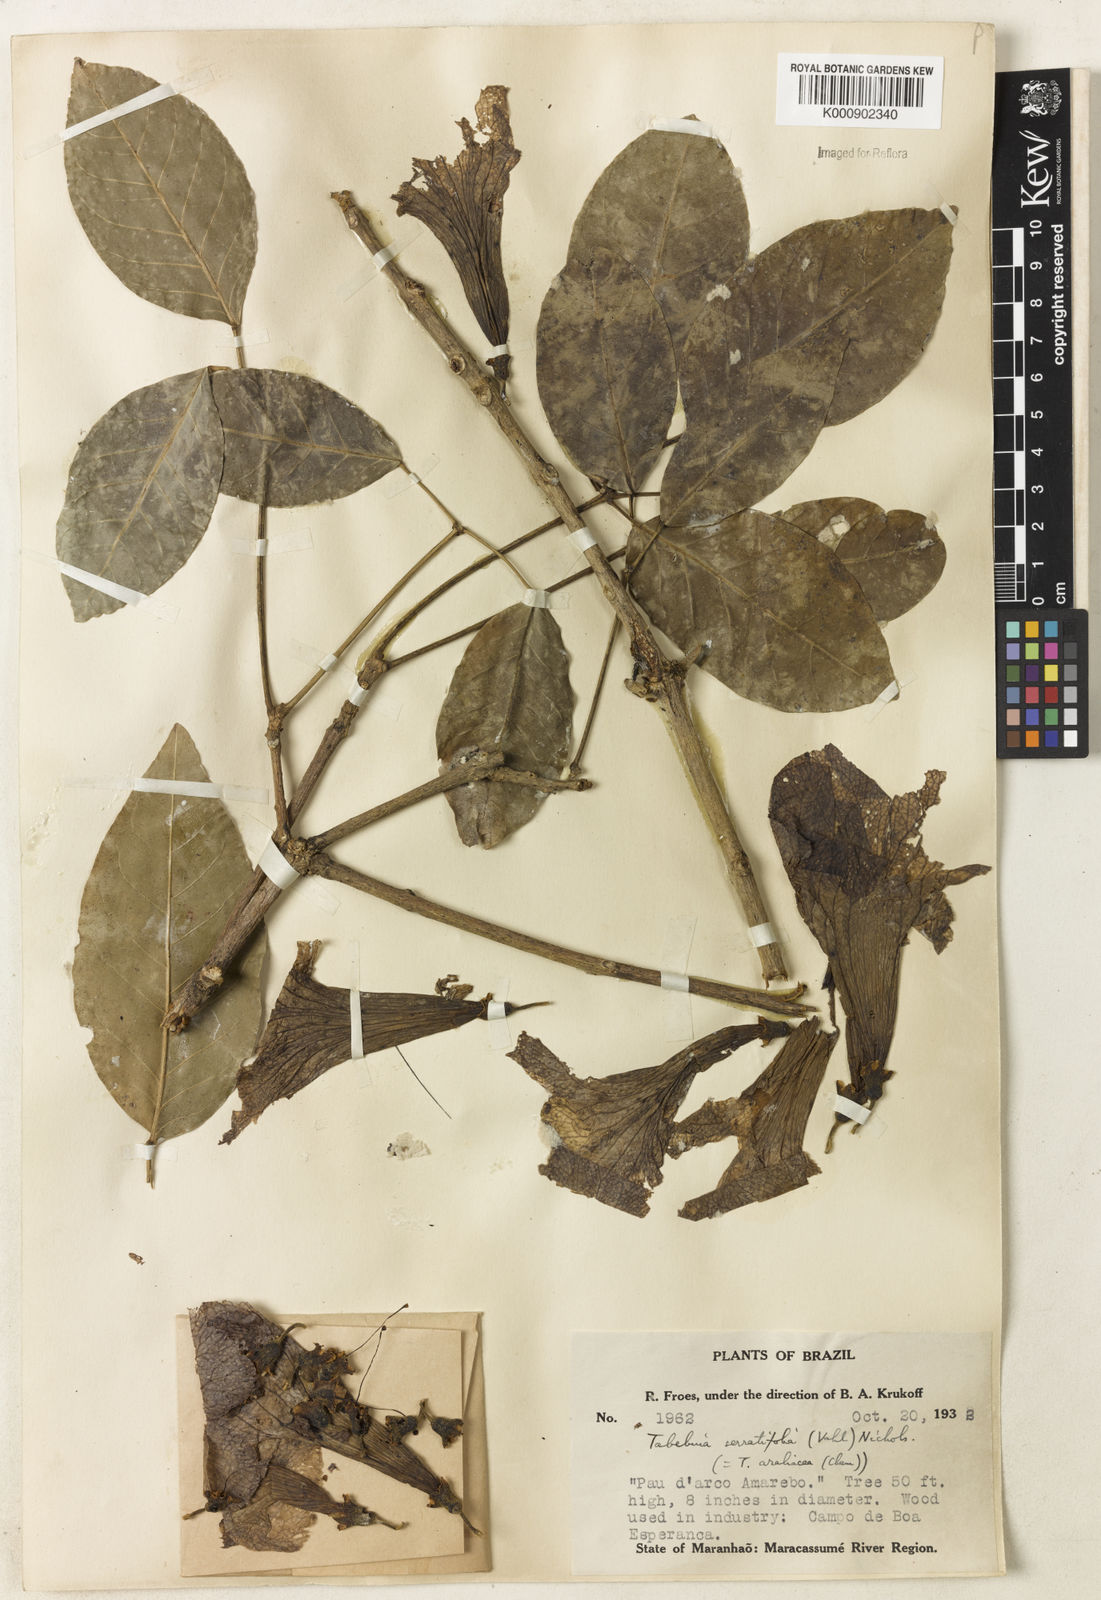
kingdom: Plantae
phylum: Tracheophyta
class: Magnoliopsida
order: Lamiales
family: Bignoniaceae
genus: Handroanthus
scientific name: Handroanthus serratifolius
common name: Yellow ipe
